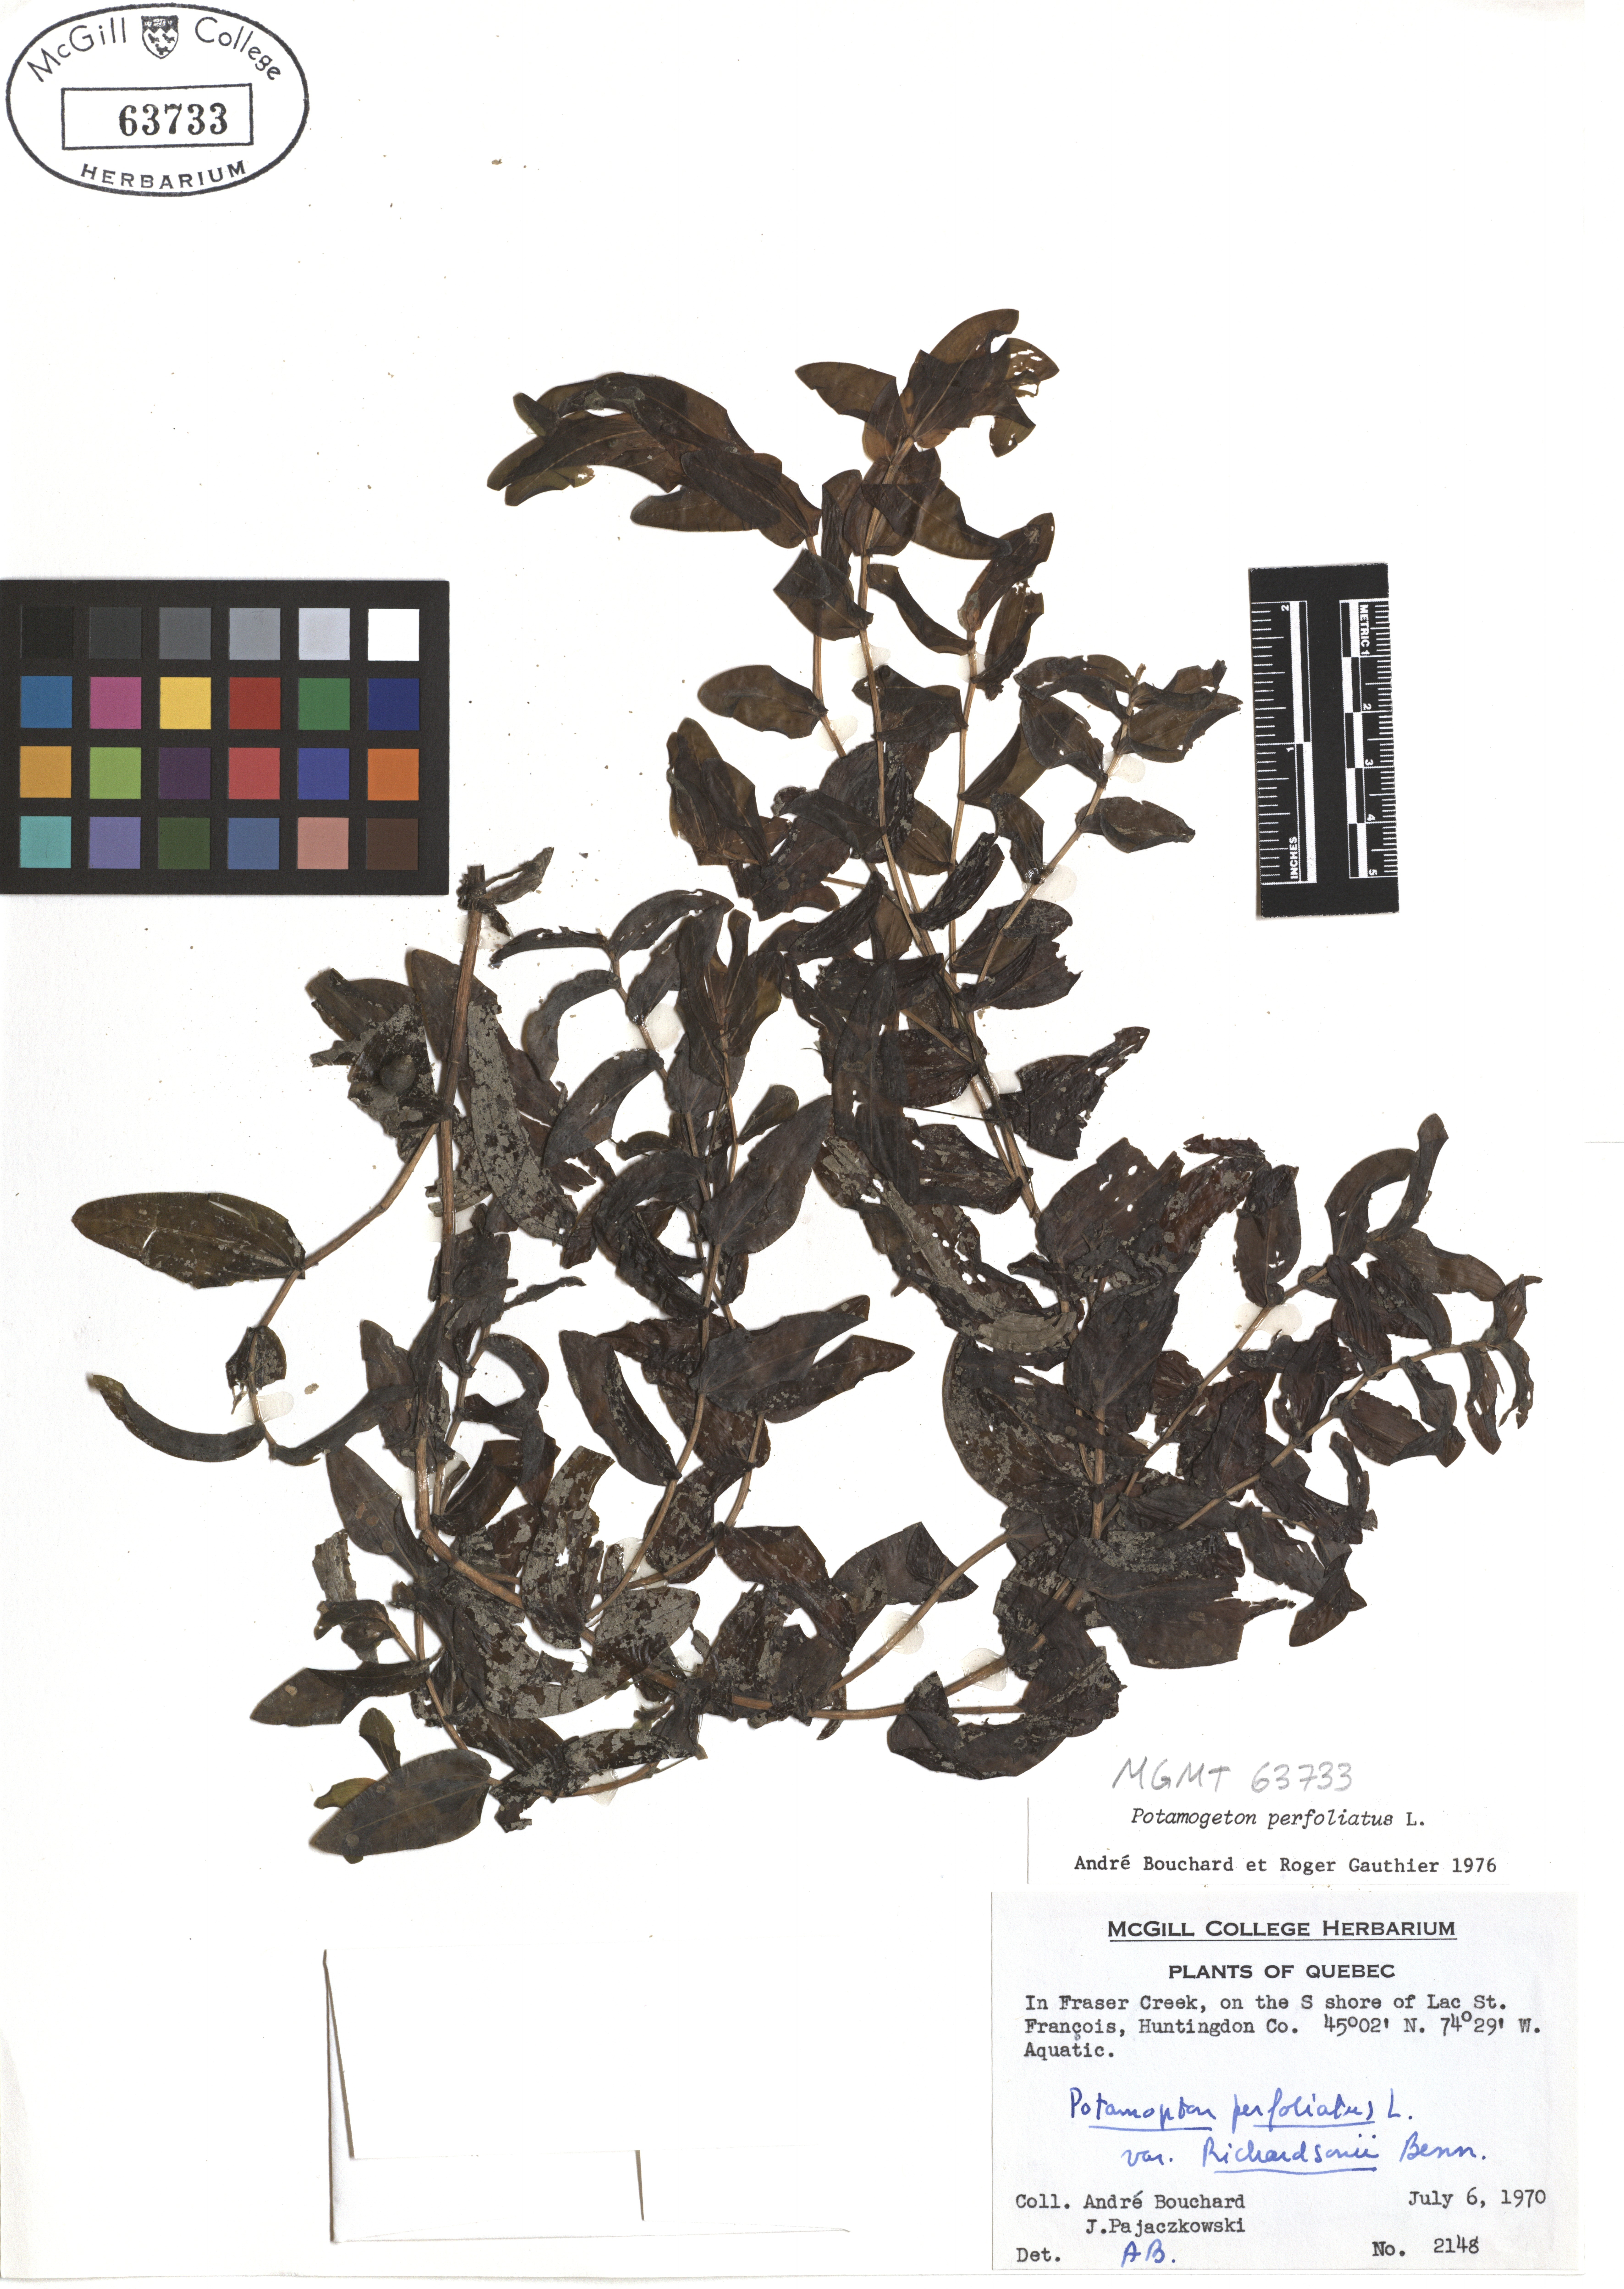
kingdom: Plantae
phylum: Tracheophyta
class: Liliopsida
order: Alismatales
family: Potamogetonaceae
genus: Potamogeton
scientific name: Potamogeton perfoliatus
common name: Perfoliate pondweed
